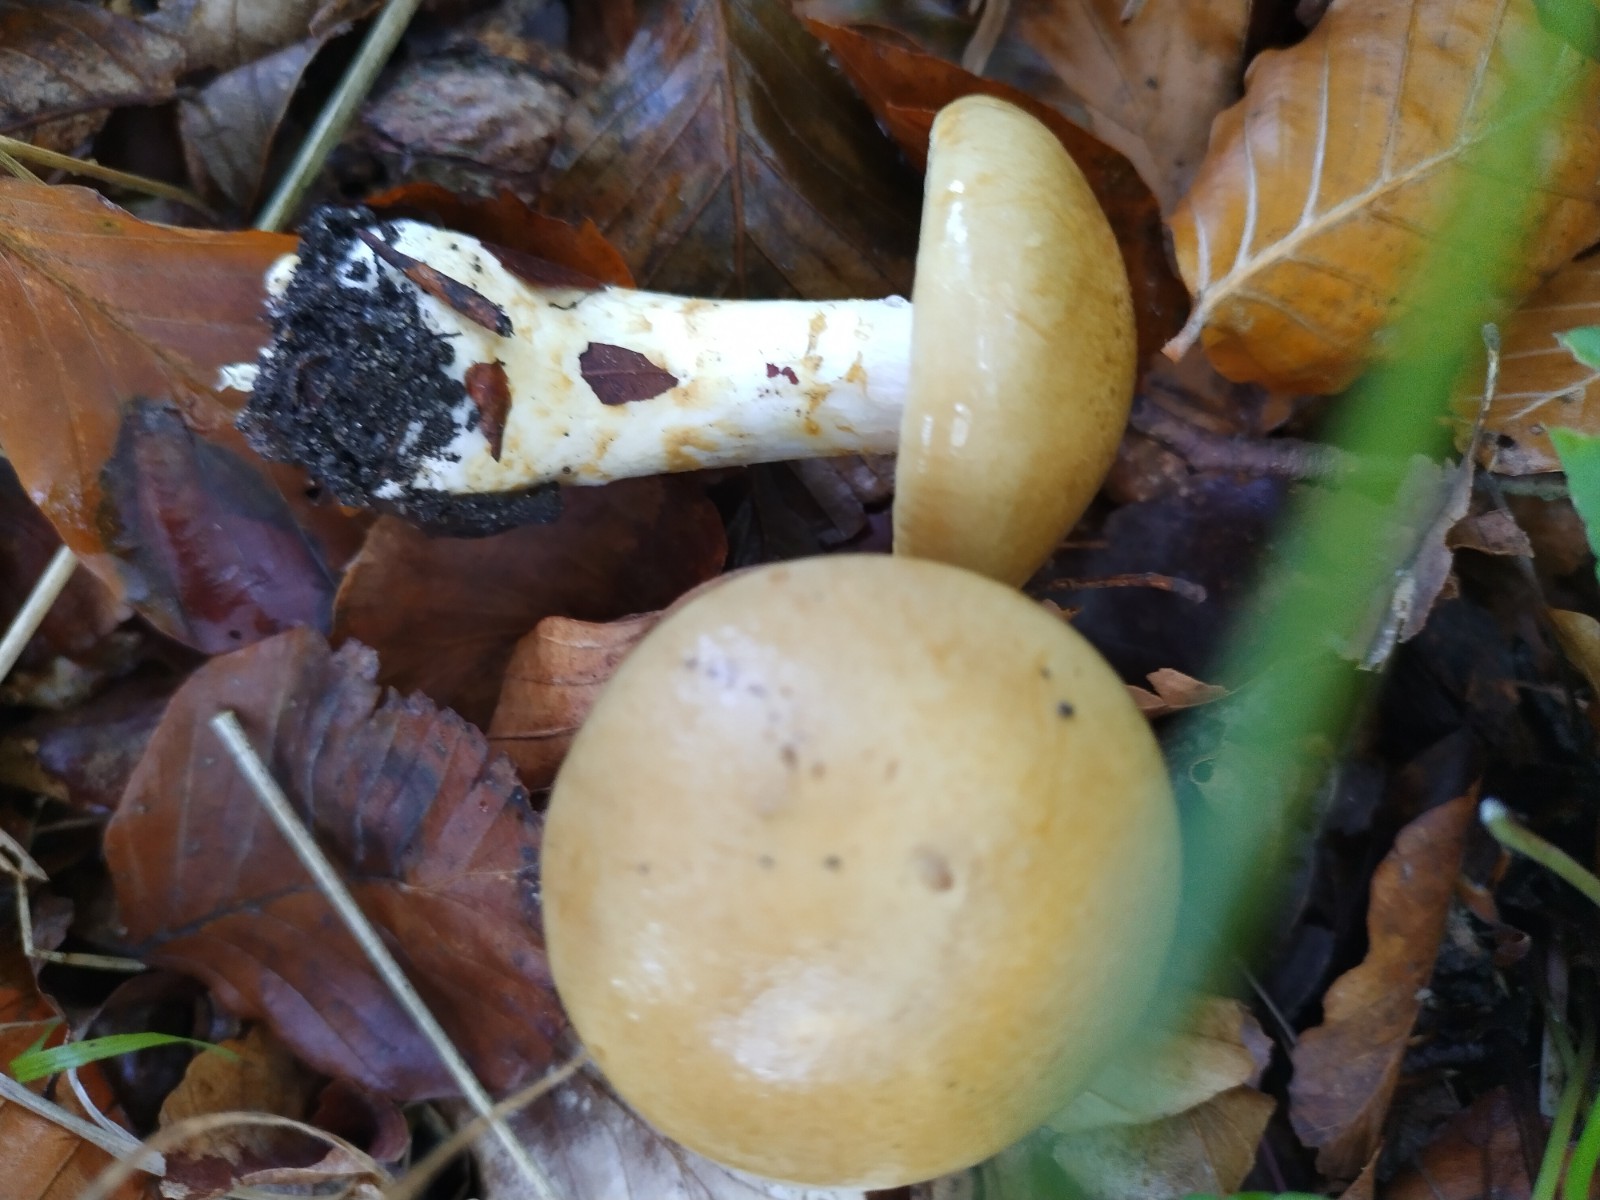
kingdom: Fungi
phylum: Basidiomycota
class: Agaricomycetes
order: Agaricales
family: Cortinariaceae
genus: Phlegmacium
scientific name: Phlegmacium cliduchus
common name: majs-slørhat
